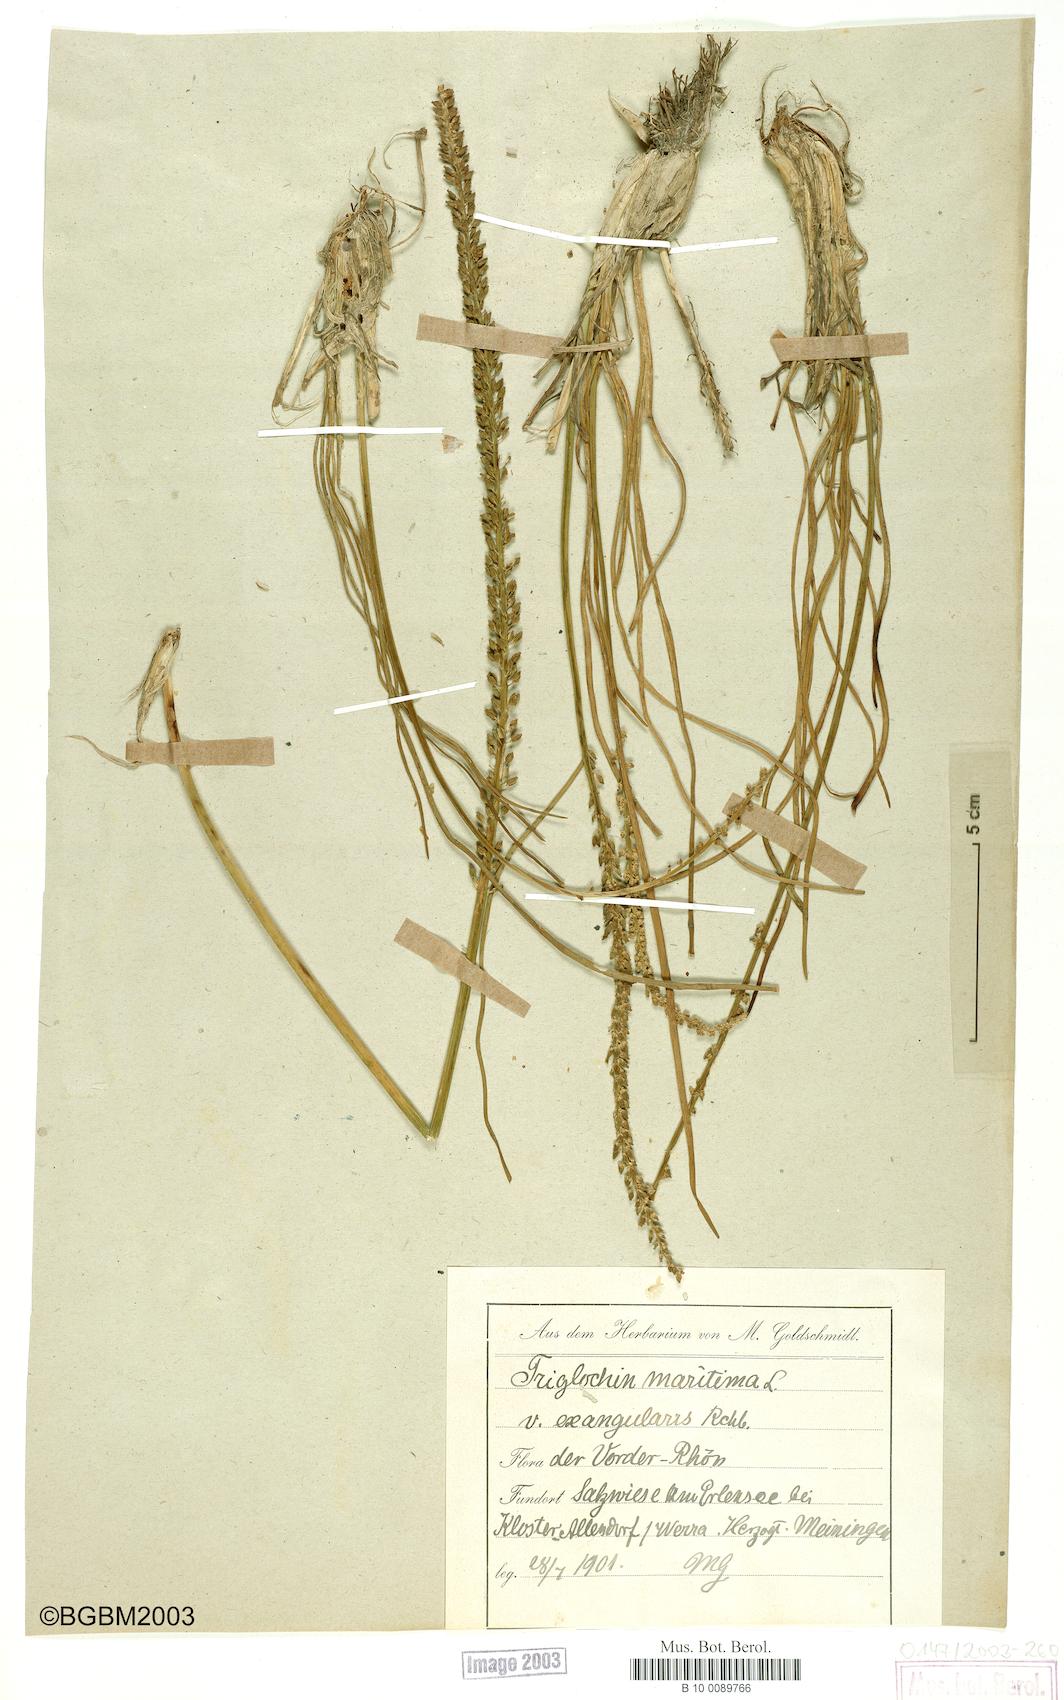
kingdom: Plantae
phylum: Tracheophyta
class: Liliopsida
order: Alismatales
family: Juncaginaceae
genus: Triglochin
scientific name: Triglochin maritima
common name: Sea arrowgrass
